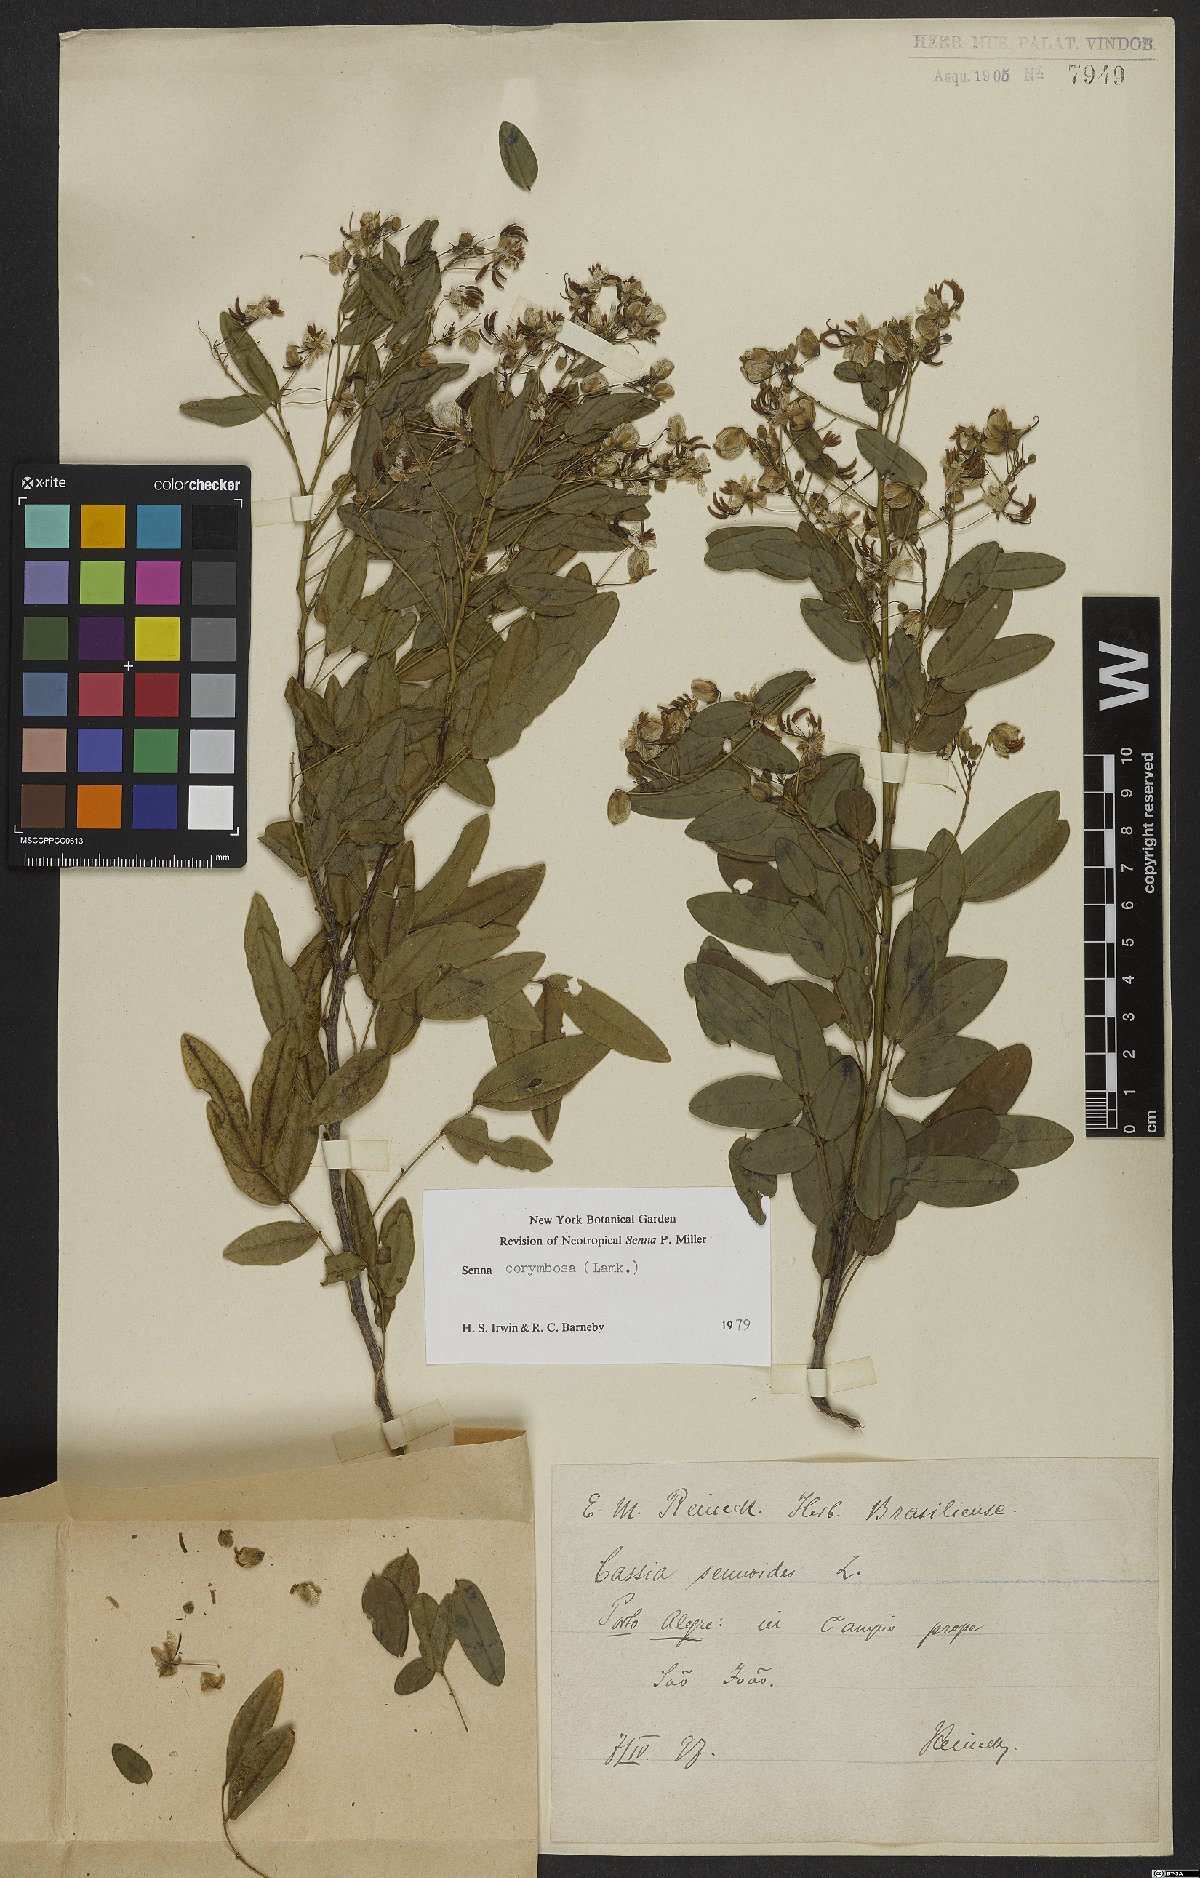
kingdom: Plantae
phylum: Tracheophyta
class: Magnoliopsida
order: Fabales
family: Fabaceae
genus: Senna
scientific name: Senna corymbosa
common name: Argentine senna
